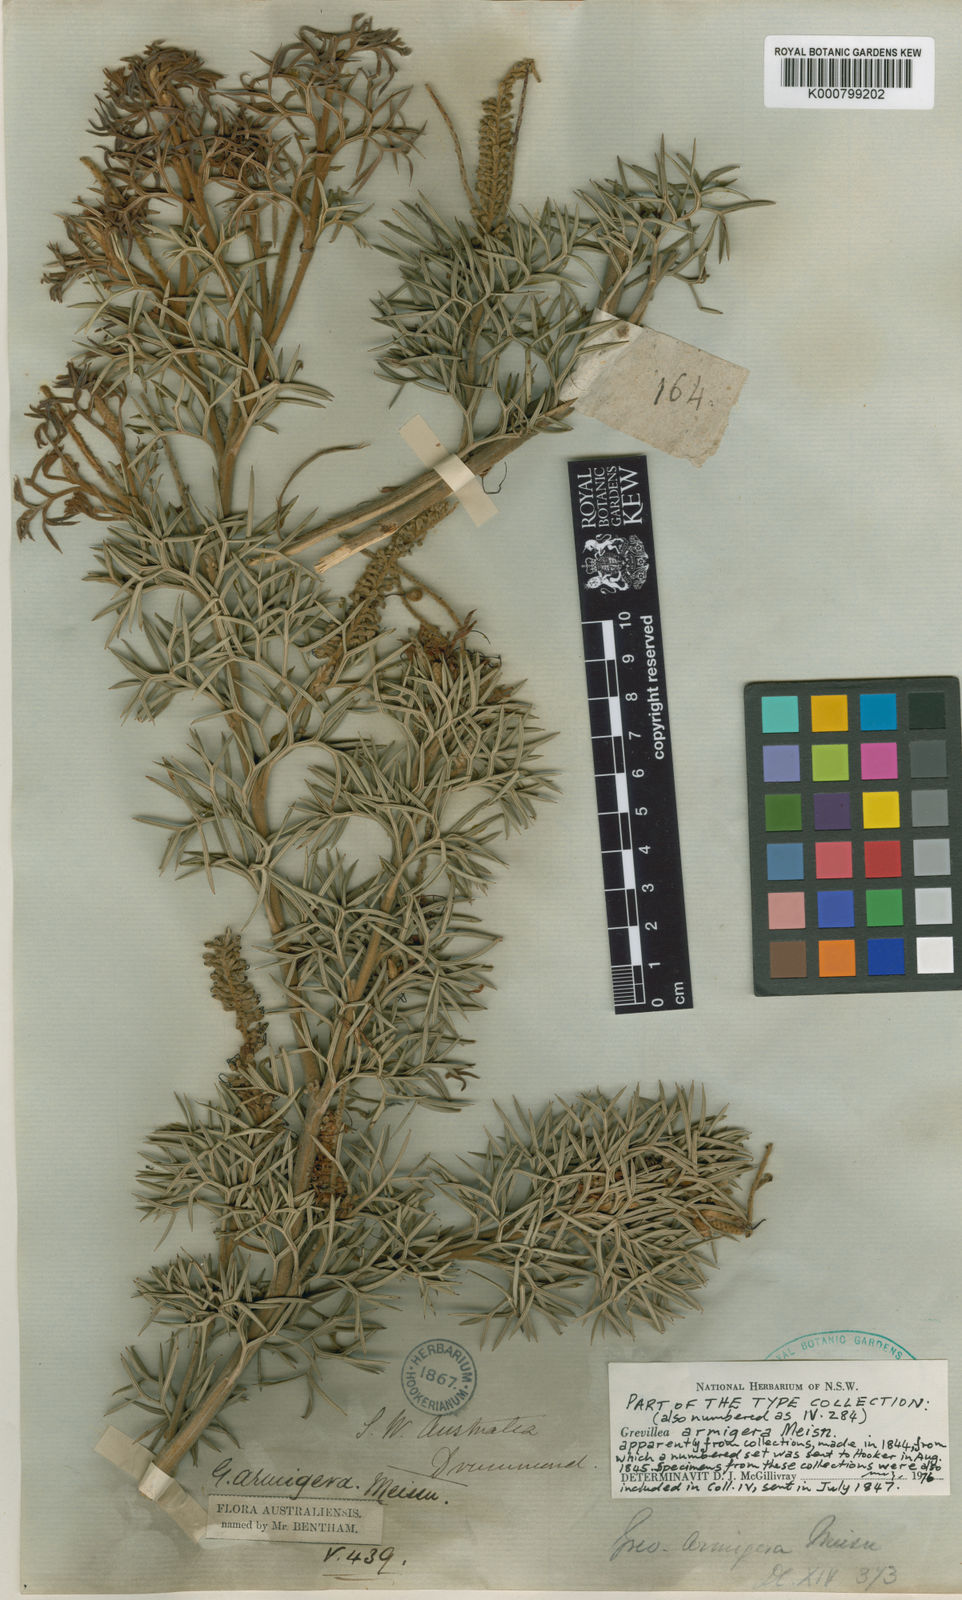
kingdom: Plantae
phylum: Tracheophyta
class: Magnoliopsida
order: Proteales
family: Proteaceae
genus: Grevillea
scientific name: Grevillea armigera
